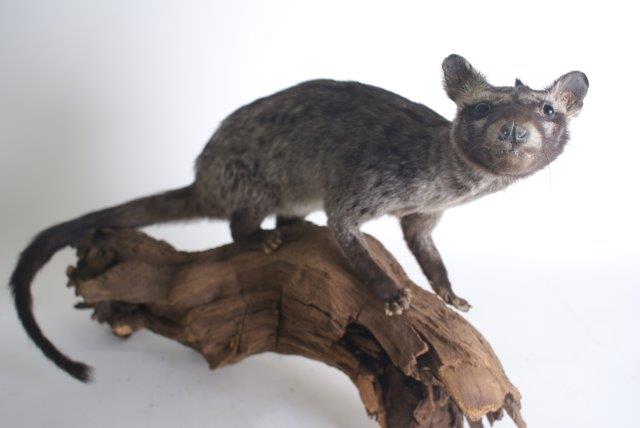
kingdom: Animalia
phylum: Chordata
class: Mammalia
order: Carnivora
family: Viverridae
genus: Paradoxurus
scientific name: Paradoxurus hermaphroditus
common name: Asian Palm Civet
